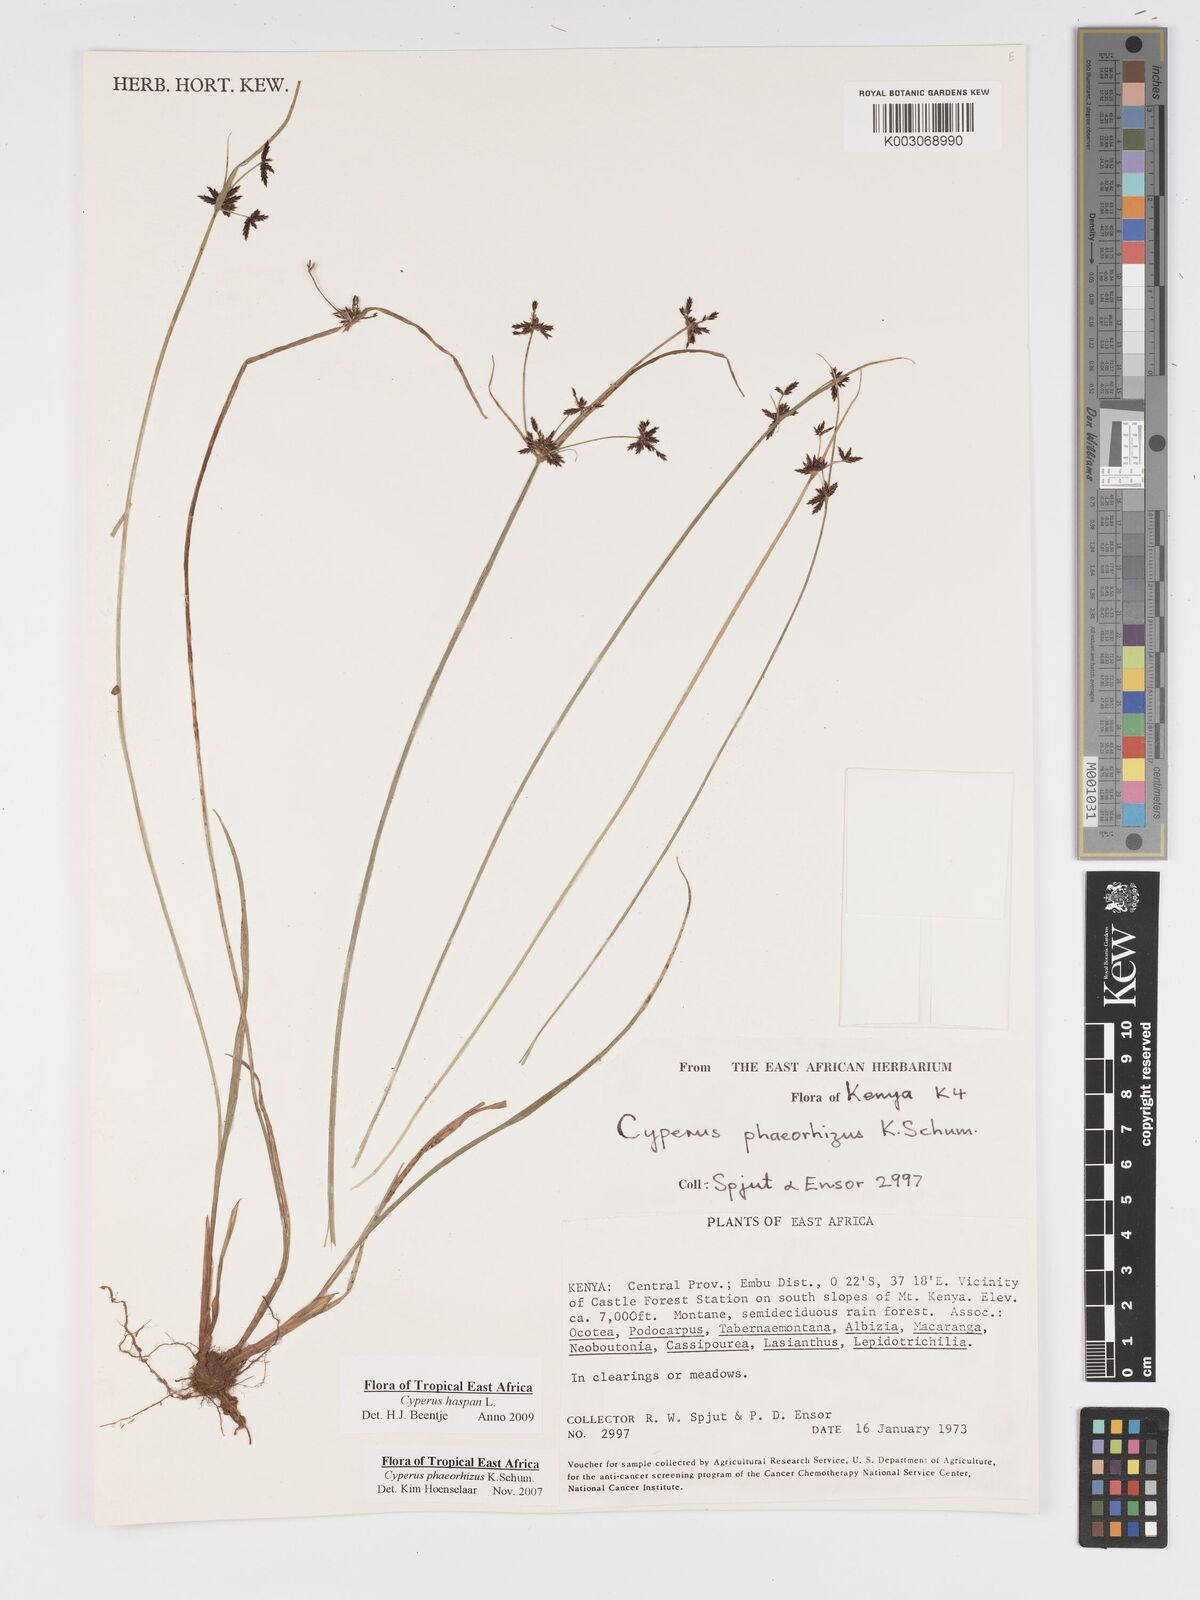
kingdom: Plantae
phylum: Tracheophyta
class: Liliopsida
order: Poales
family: Cyperaceae
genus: Cyperus
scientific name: Cyperus haspan
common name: Haspan flatsedge
